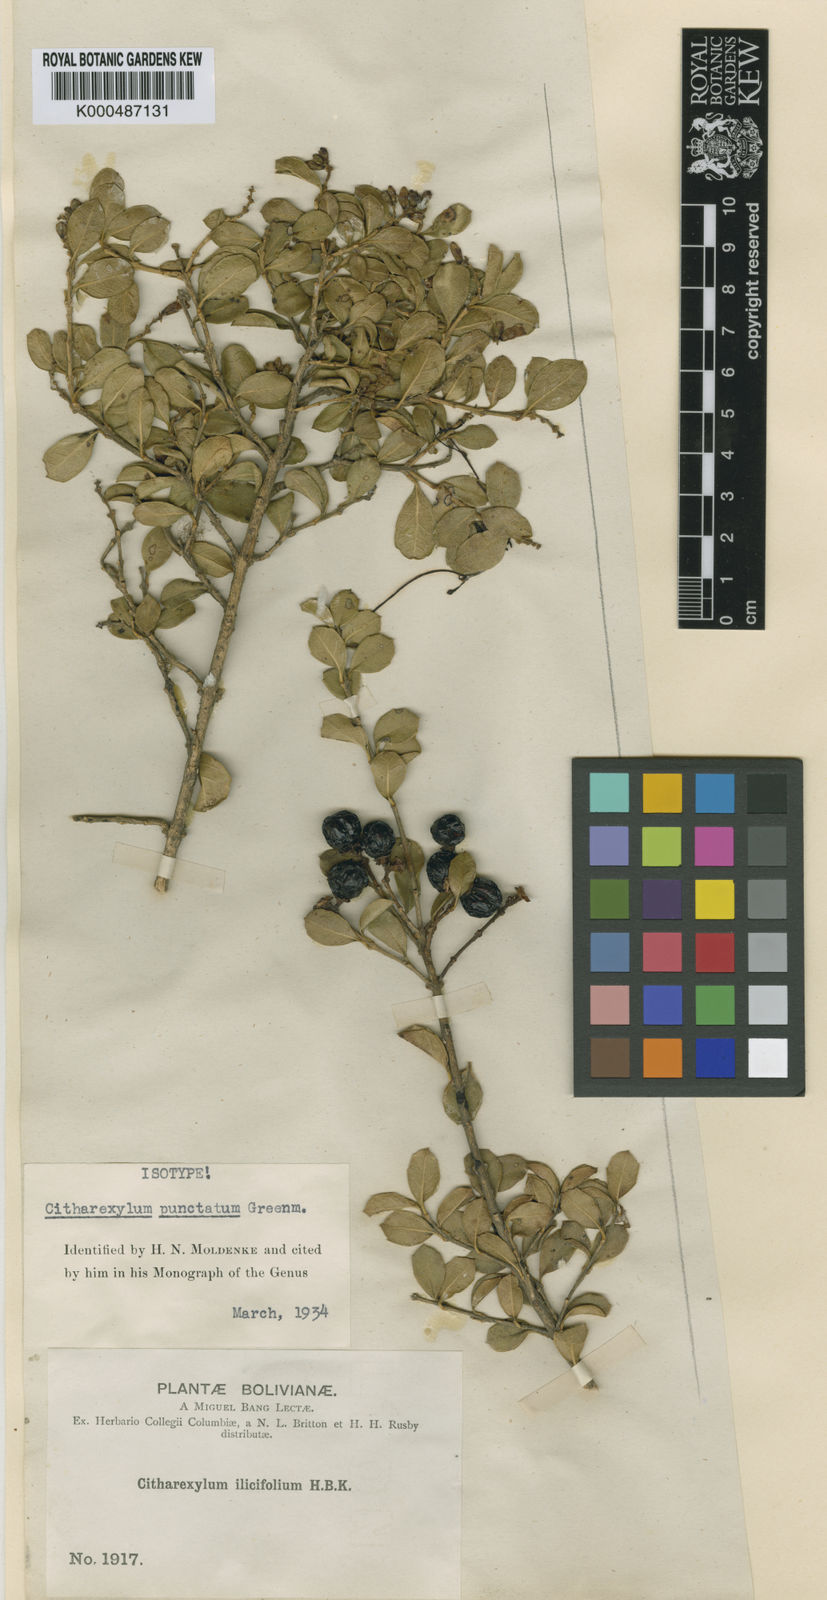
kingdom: Plantae
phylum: Tracheophyta
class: Magnoliopsida
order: Lamiales
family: Verbenaceae
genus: Citharexylum
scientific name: Citharexylum dentatum
